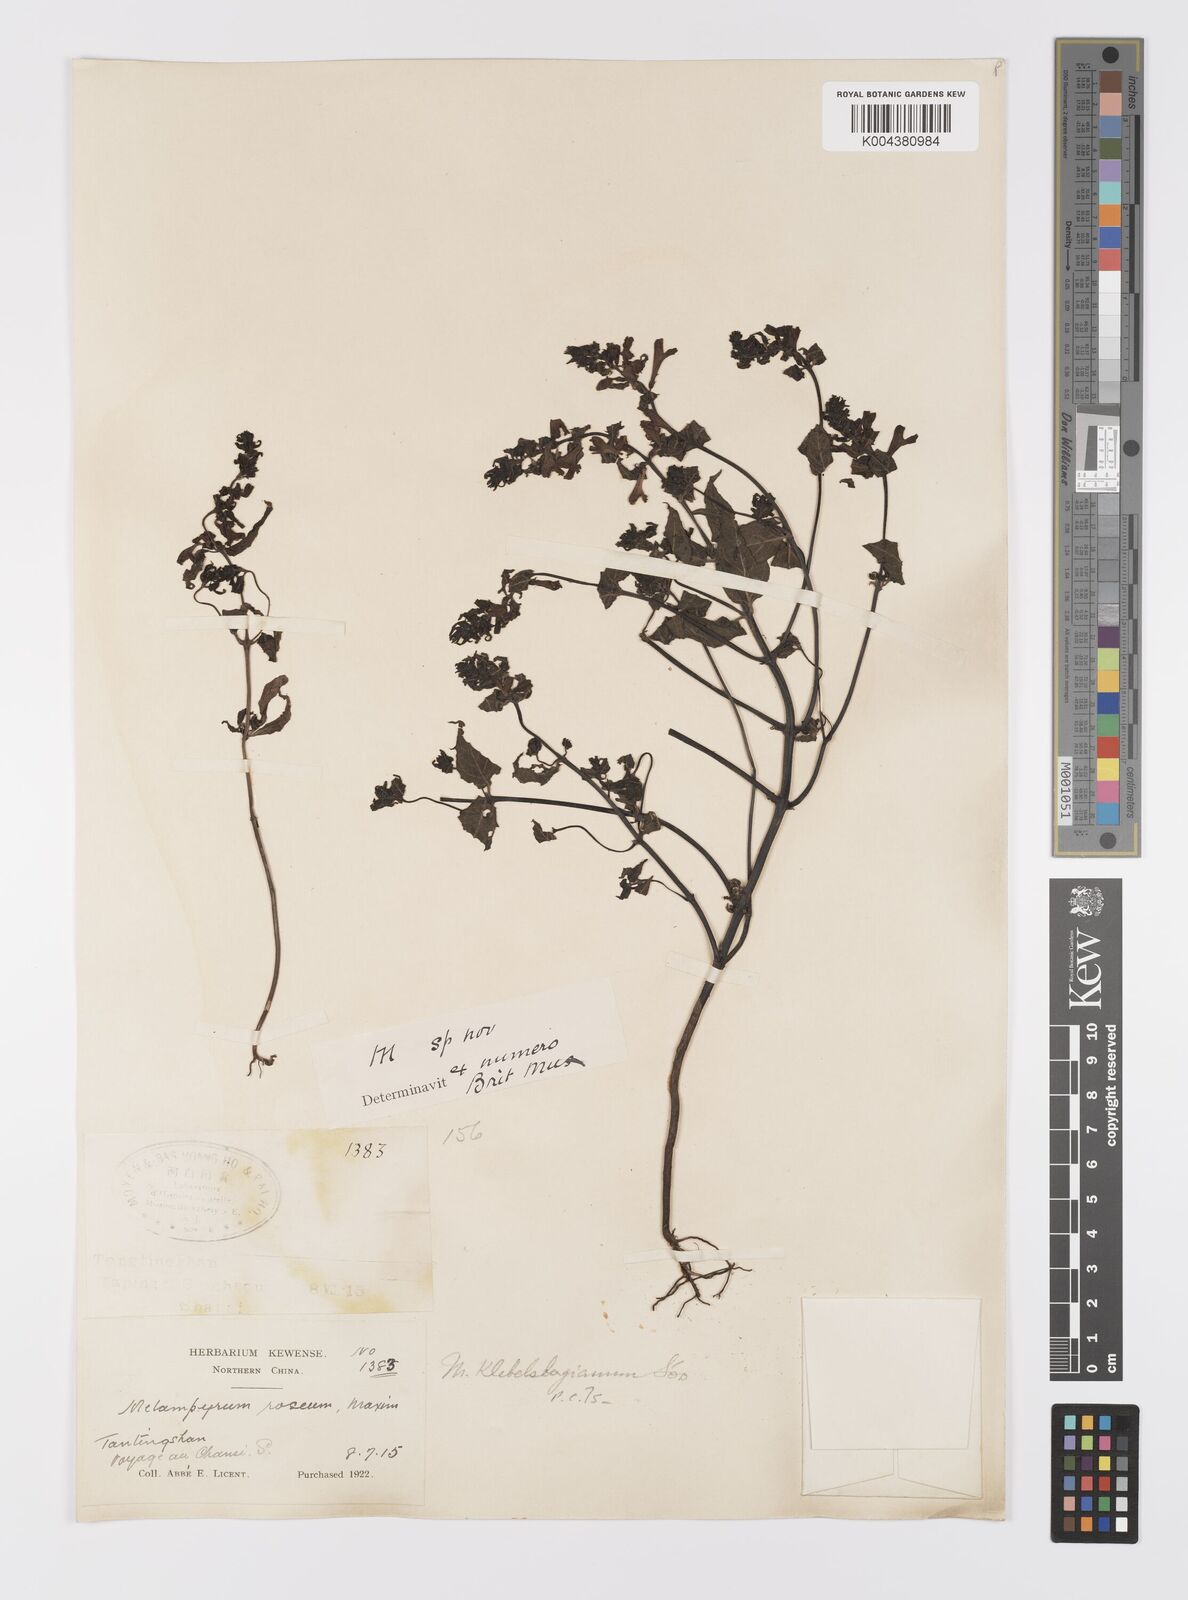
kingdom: Plantae
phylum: Tracheophyta
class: Magnoliopsida
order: Lamiales
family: Orobanchaceae
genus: Melampyrum
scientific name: Melampyrum chinense
